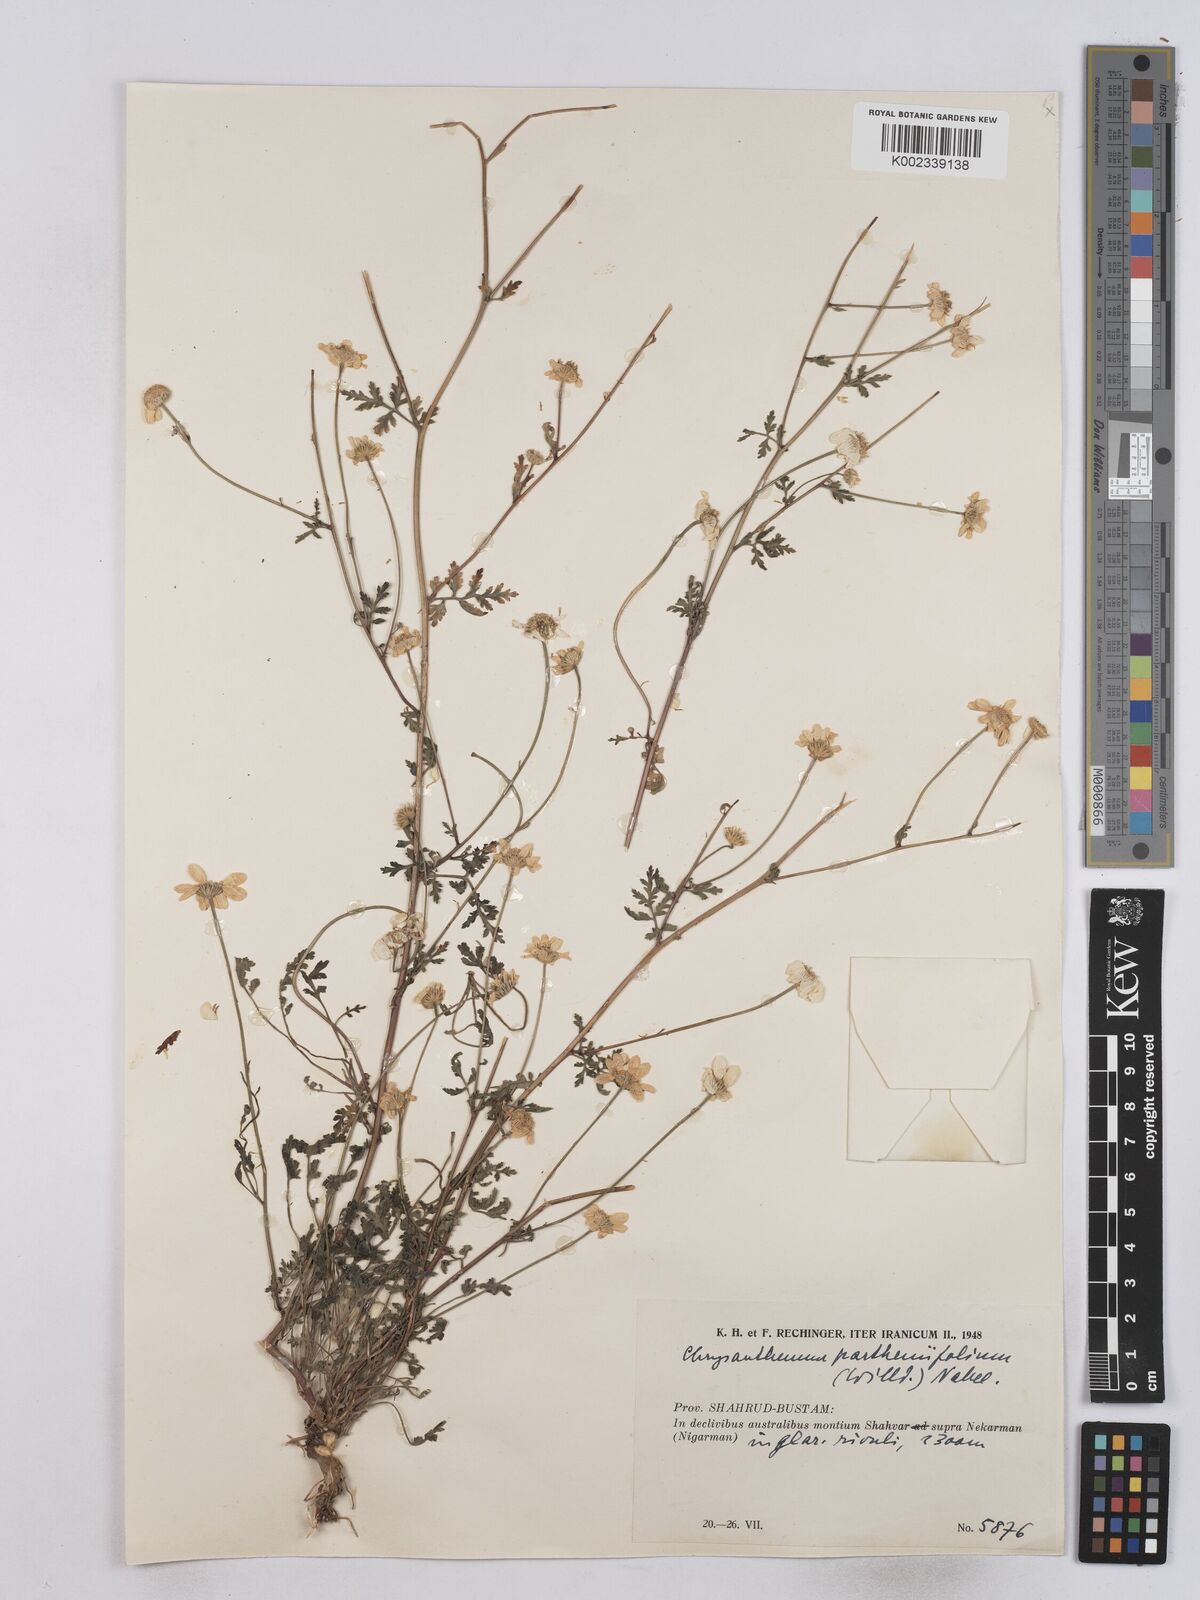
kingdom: Plantae
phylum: Tracheophyta
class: Magnoliopsida
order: Asterales
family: Asteraceae
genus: Tanacetum
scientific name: Tanacetum partheniifolium
